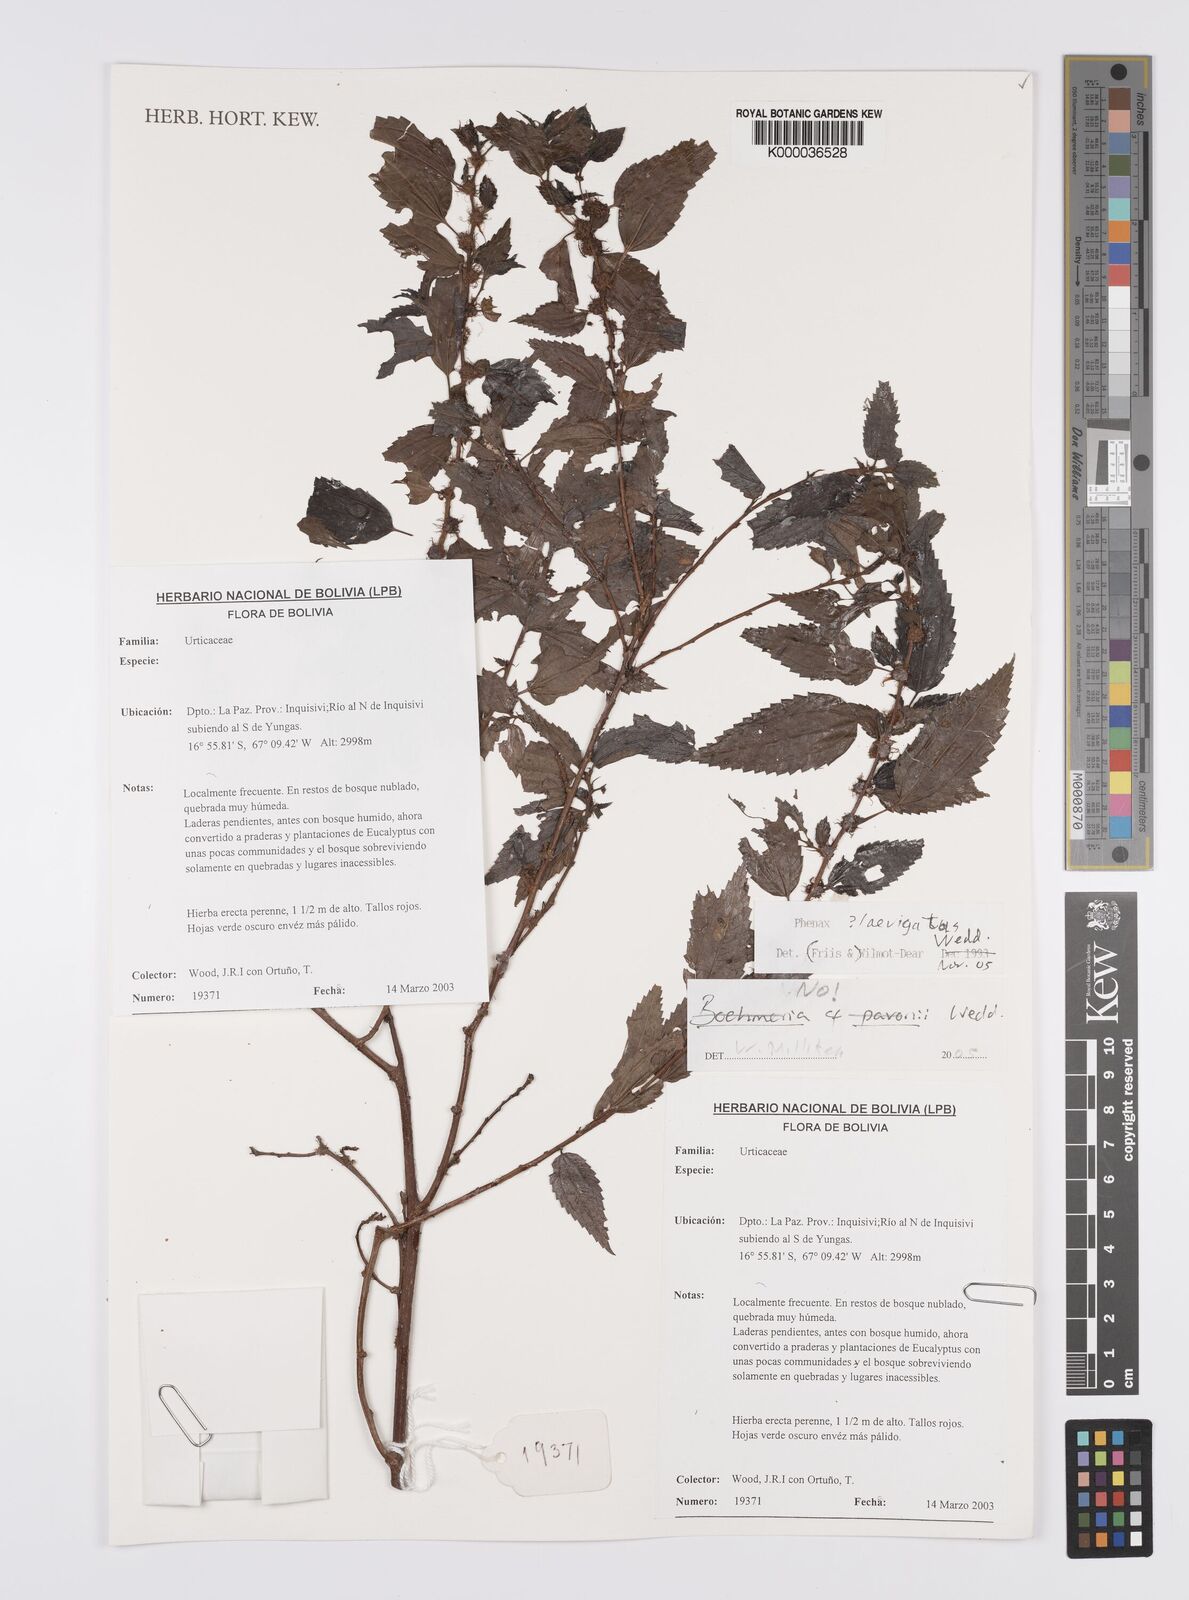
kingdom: Plantae
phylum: Tracheophyta
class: Magnoliopsida
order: Rosales
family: Urticaceae
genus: Phenax
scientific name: Phenax laevigatus
